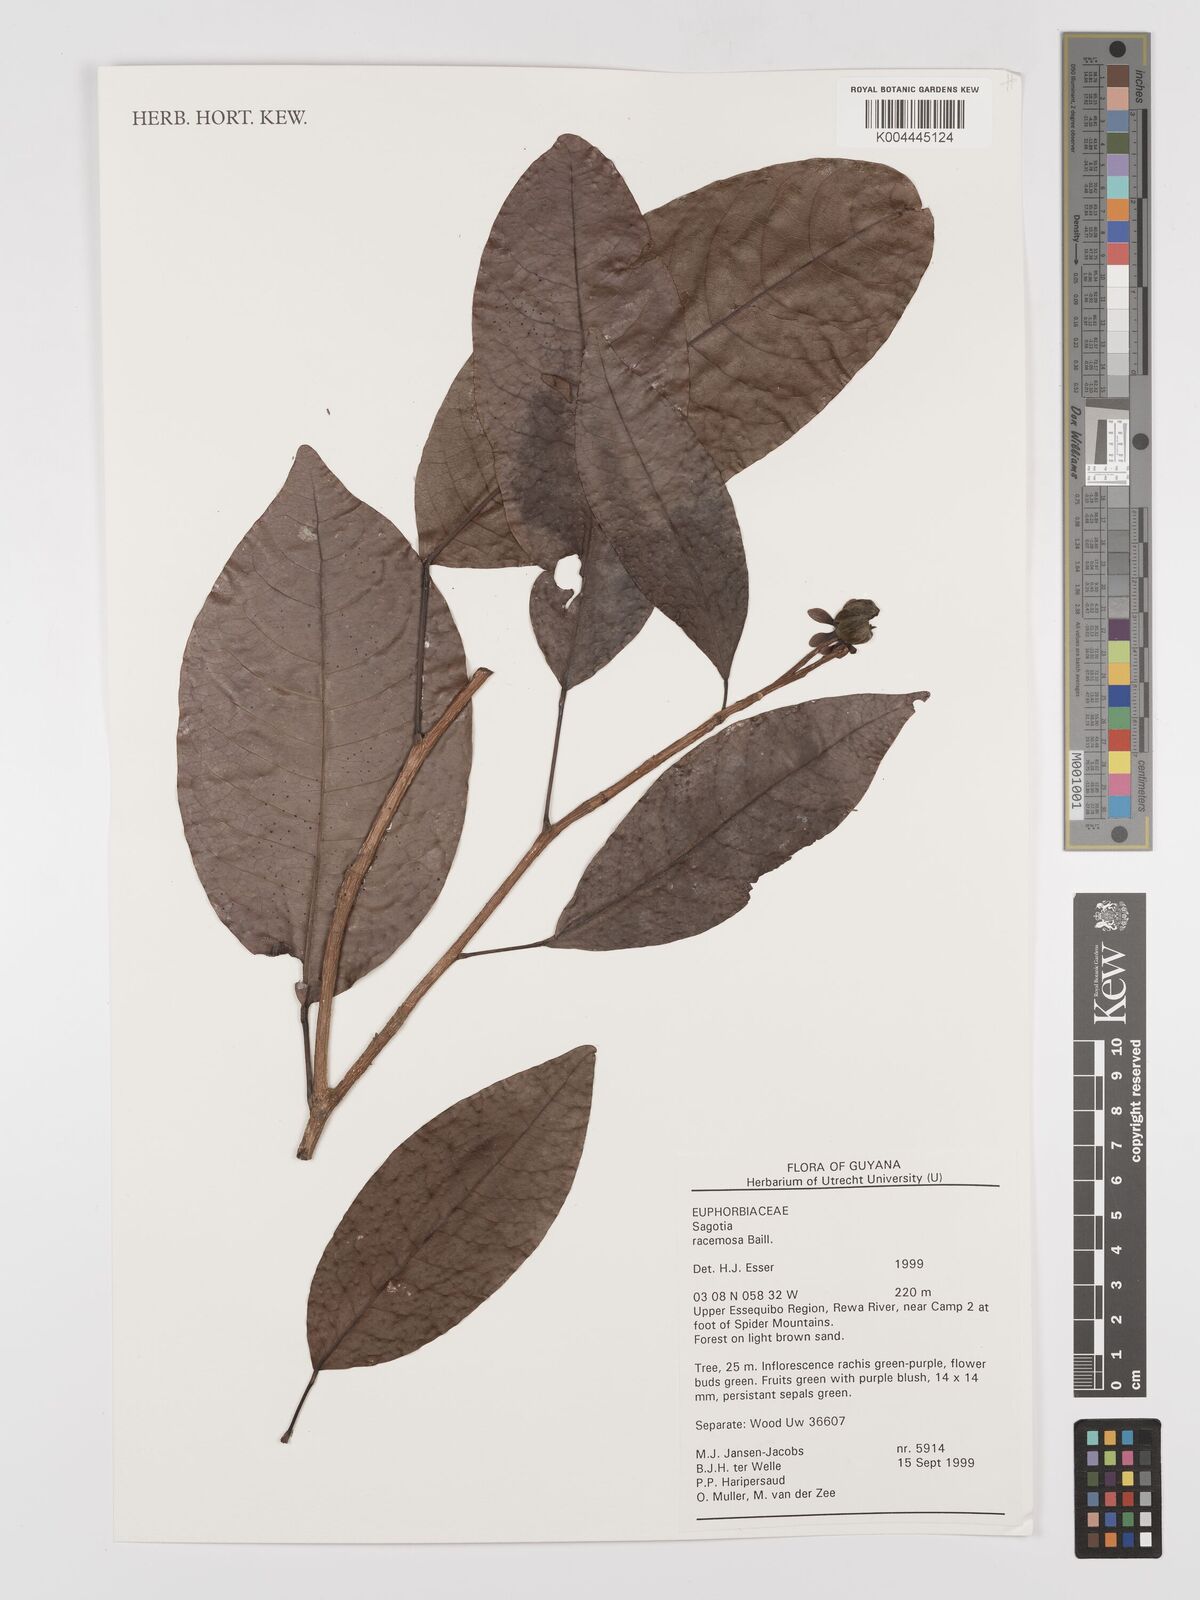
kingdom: Plantae
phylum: Tracheophyta
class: Magnoliopsida
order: Malpighiales
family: Euphorbiaceae
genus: Sagotia
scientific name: Sagotia racemosa
